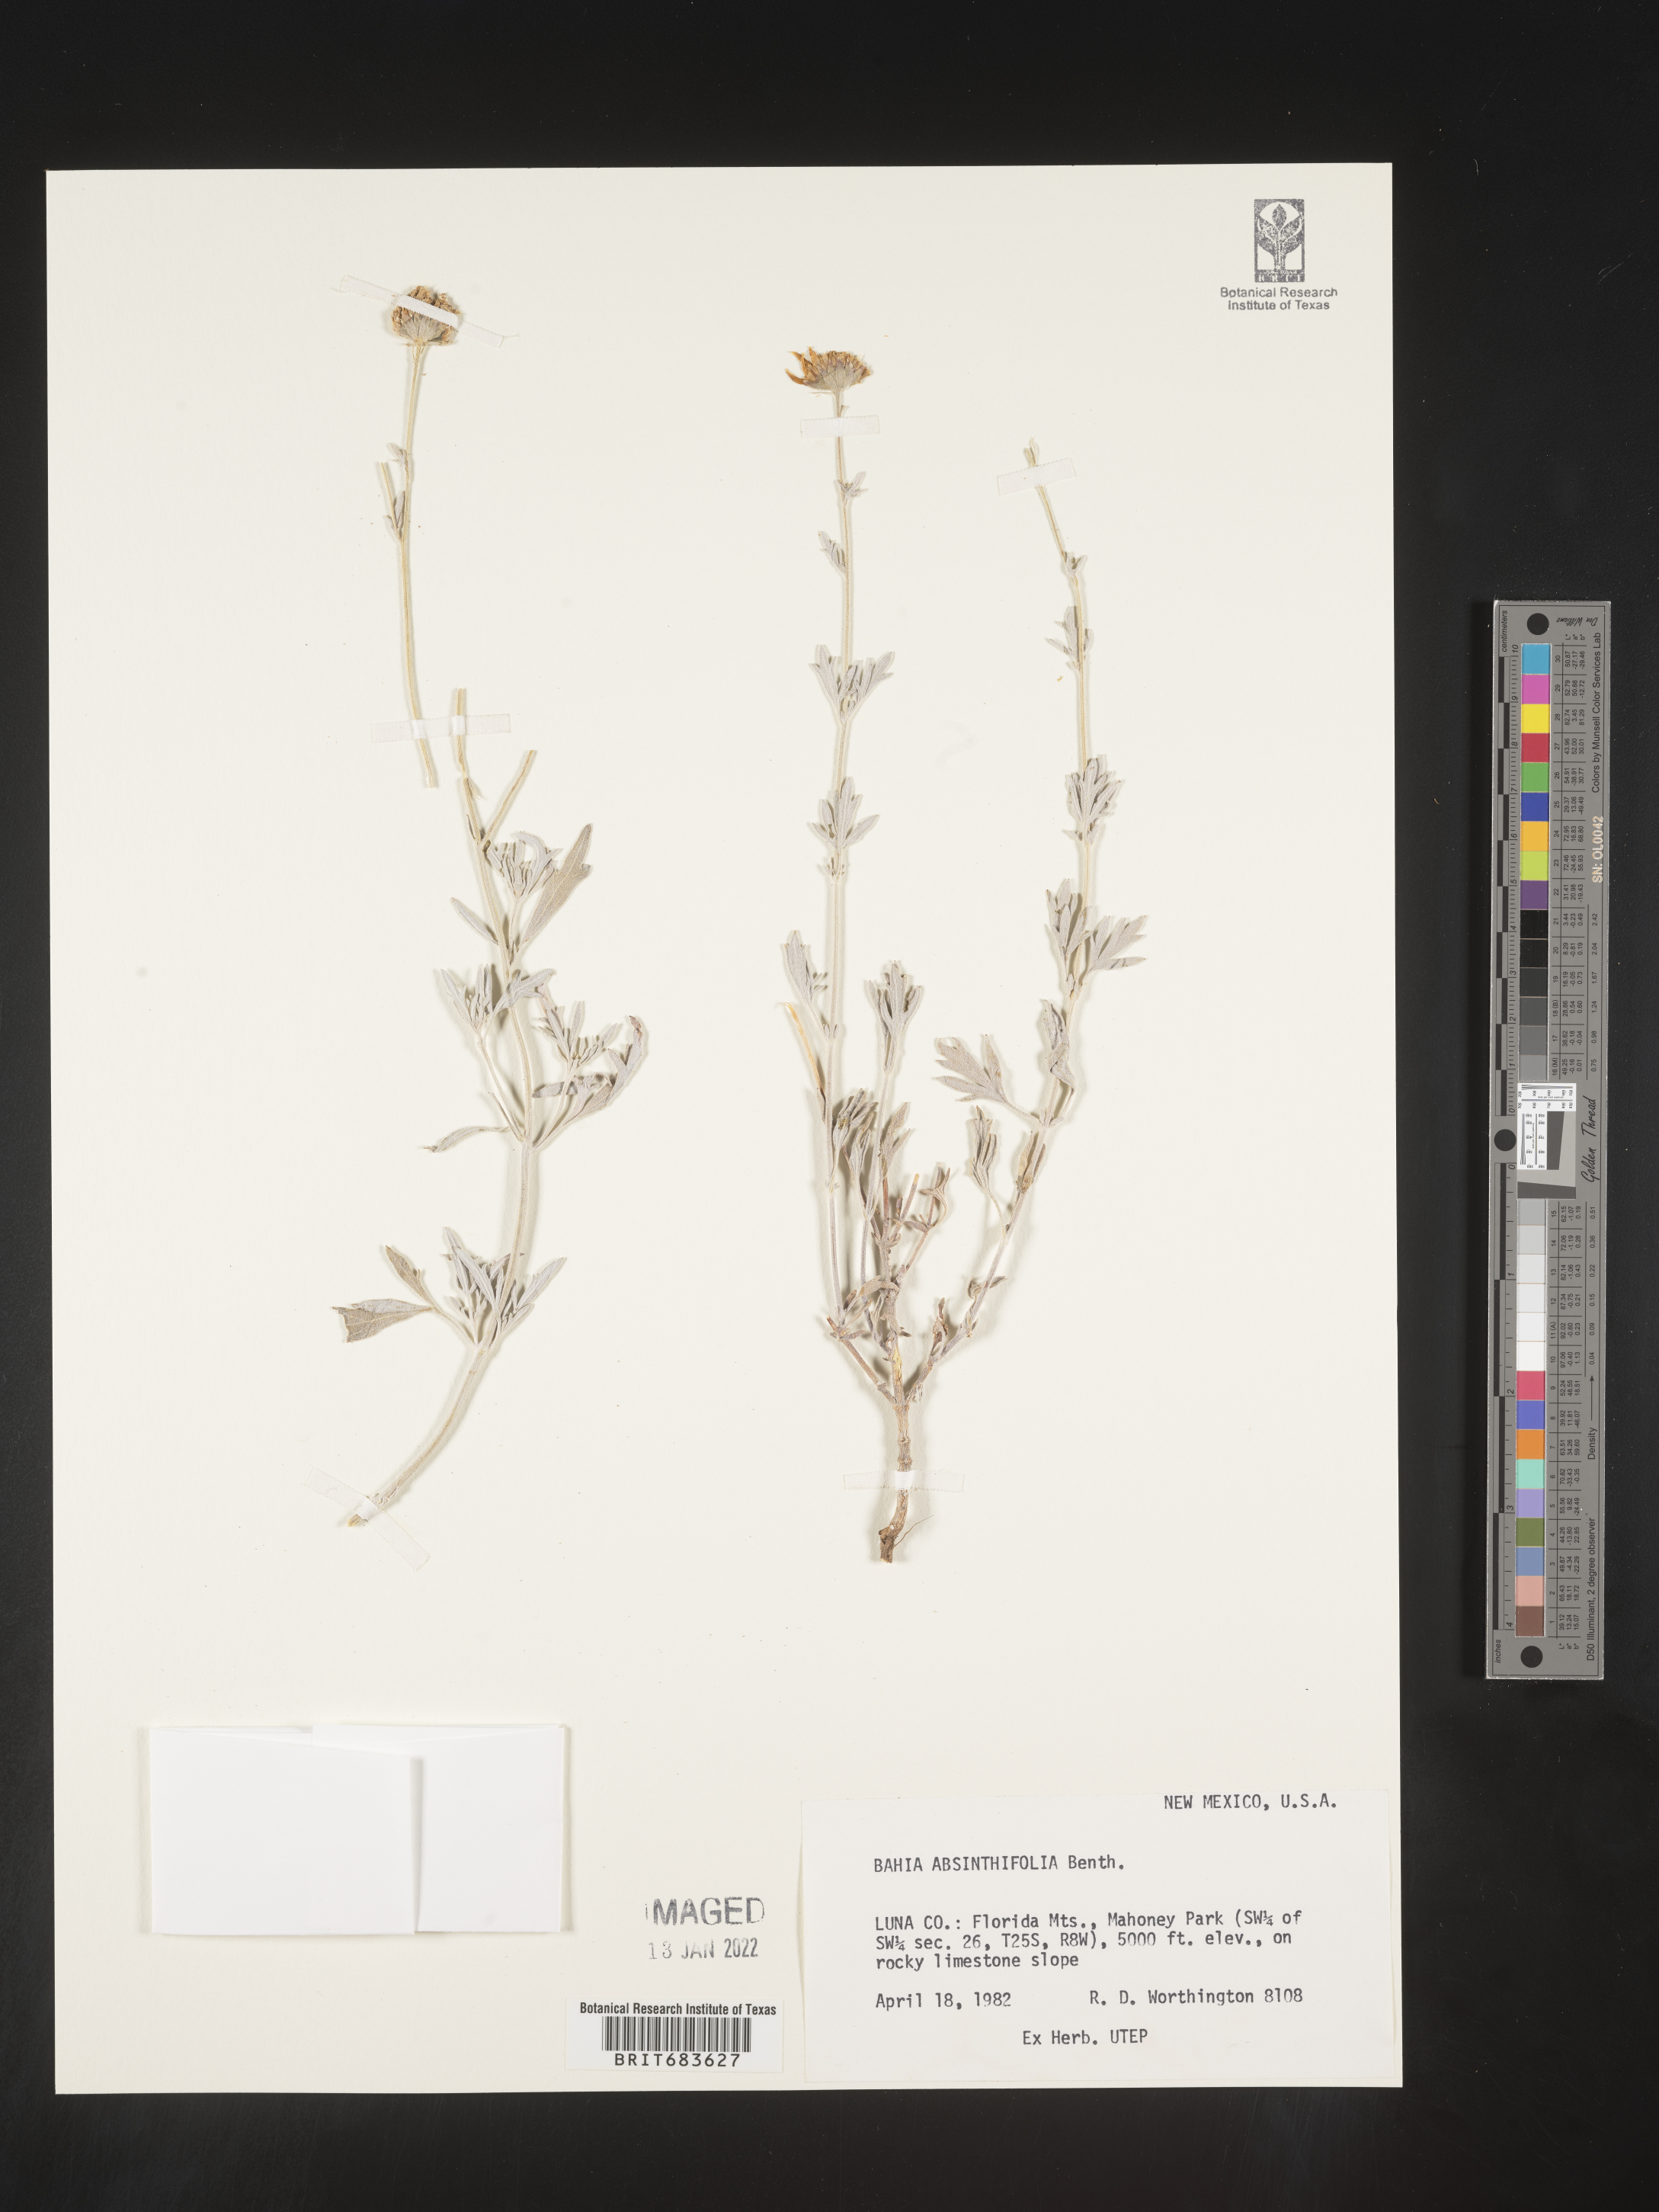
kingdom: Plantae
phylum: Tracheophyta
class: Magnoliopsida
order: Asterales
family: Asteraceae
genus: Picradeniopsis
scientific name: Picradeniopsis absinthifolia
